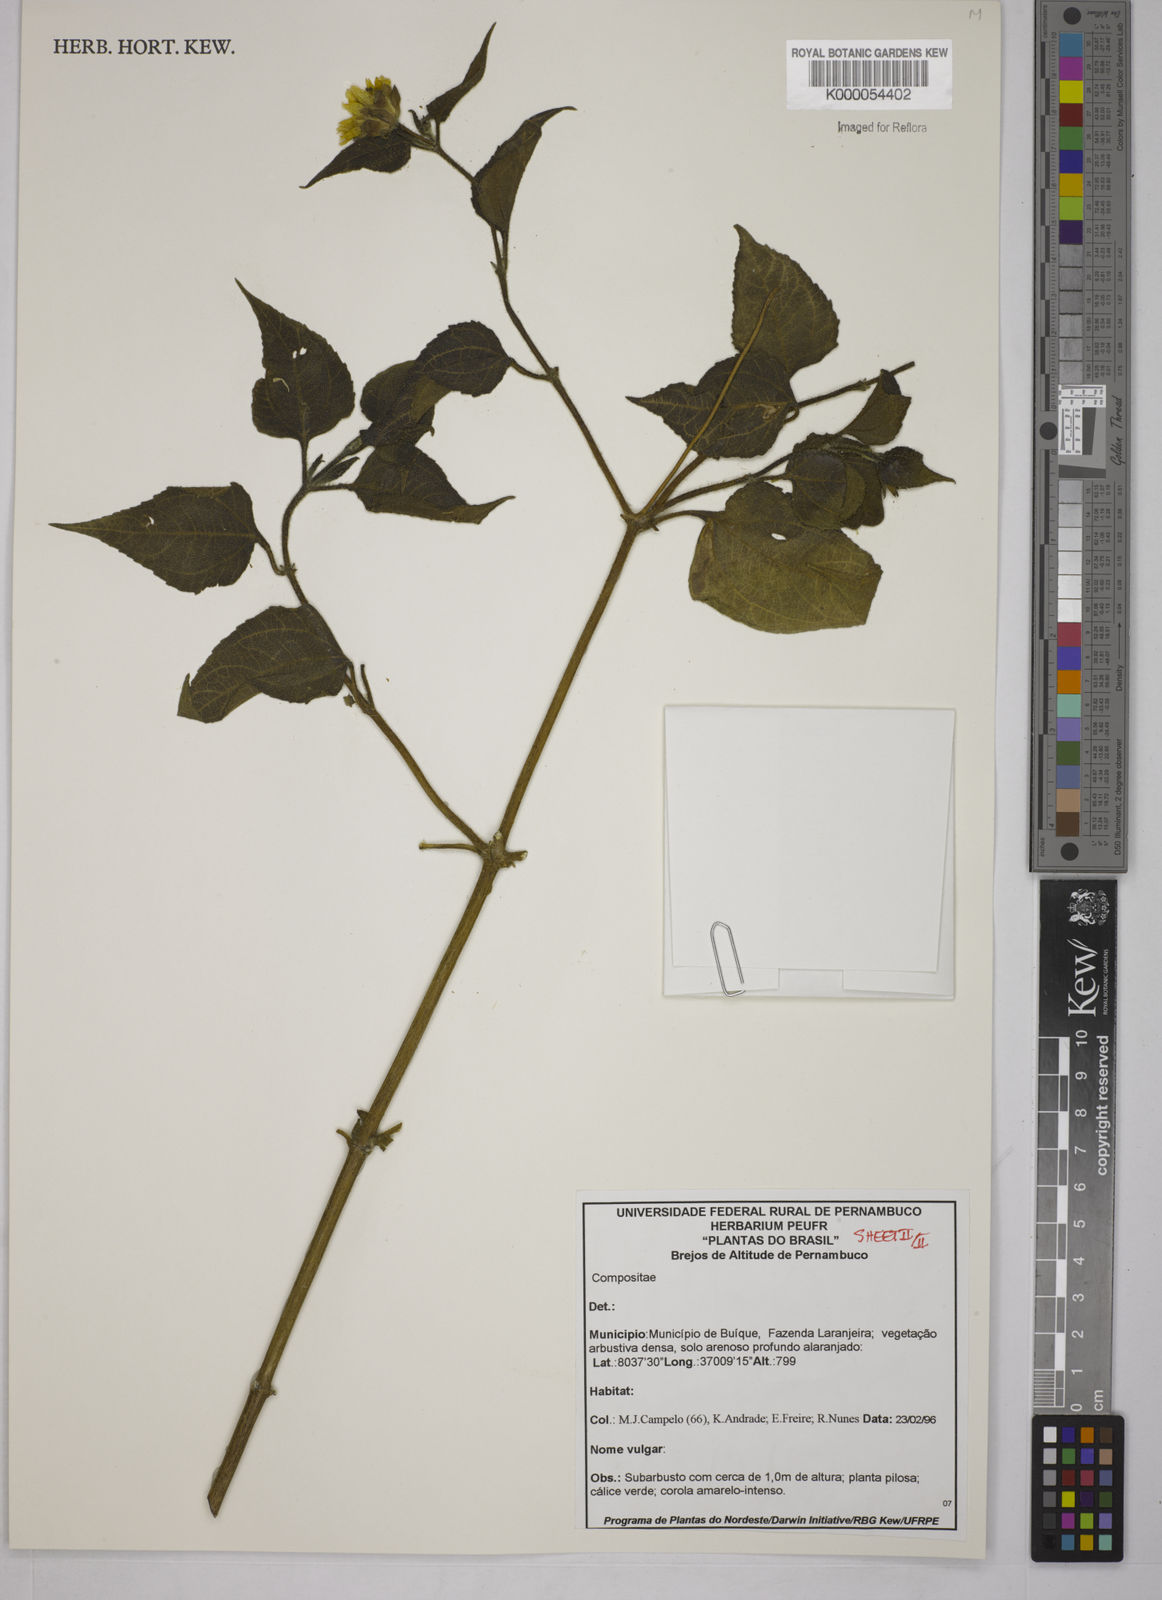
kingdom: Plantae
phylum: Tracheophyta
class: Magnoliopsida
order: Asterales
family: Asteraceae
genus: Wedelia
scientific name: Wedelia
